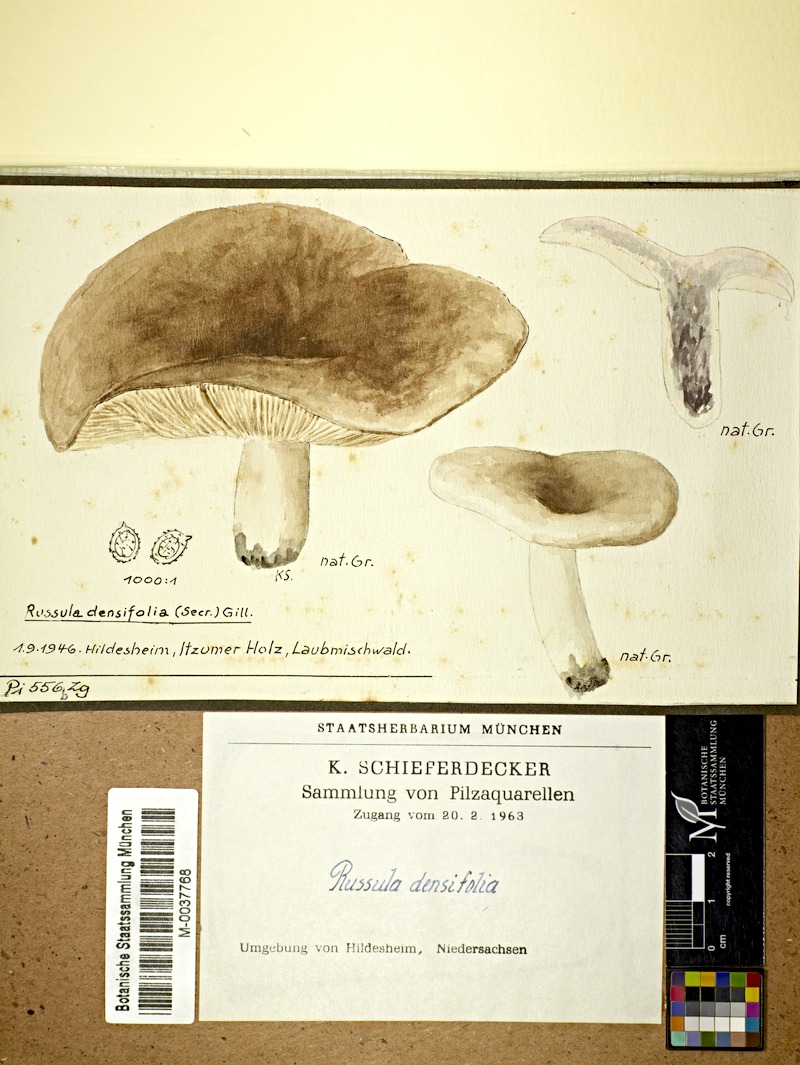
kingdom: Fungi
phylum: Basidiomycota
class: Agaricomycetes
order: Russulales
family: Russulaceae
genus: Russula
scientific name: Russula densifolia
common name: Crowded brittlegill
